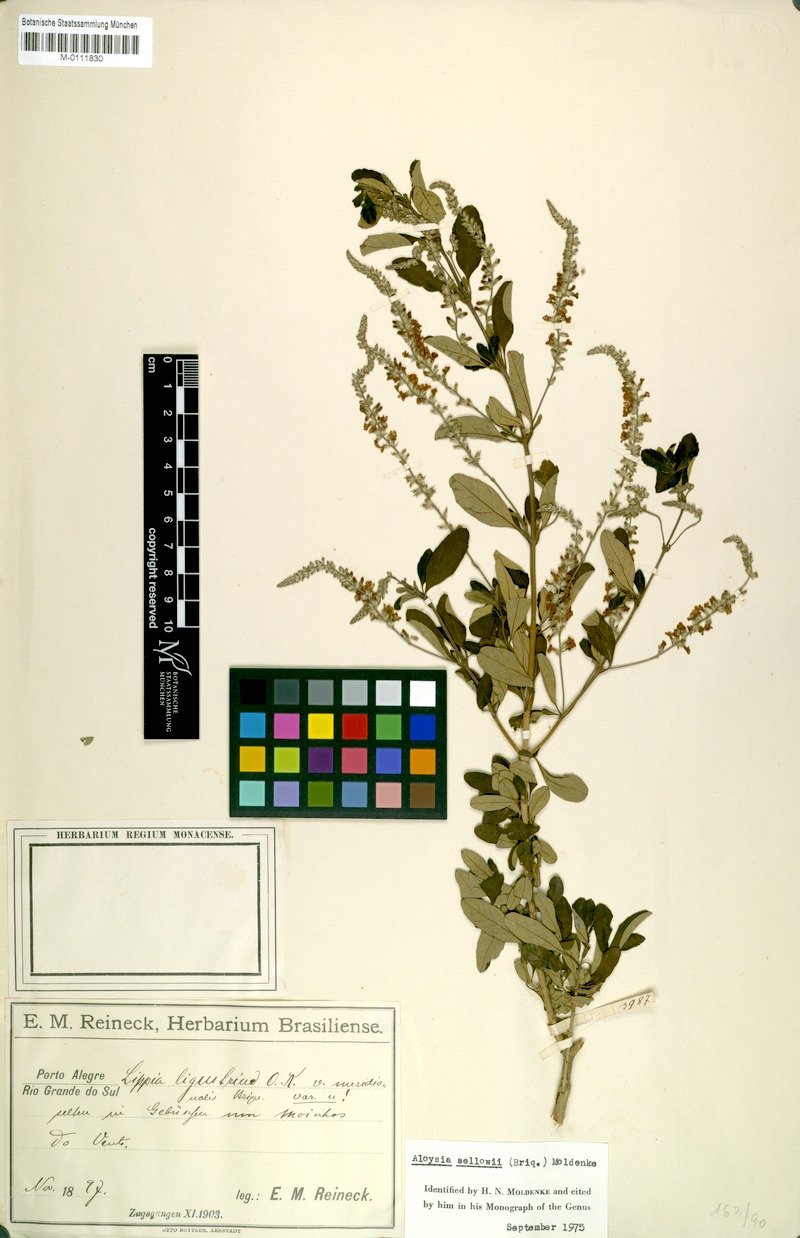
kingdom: Plantae
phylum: Tracheophyta
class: Magnoliopsida
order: Lamiales
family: Verbenaceae
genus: Aloysia
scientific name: Aloysia gratissima
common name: Common bee-brush
